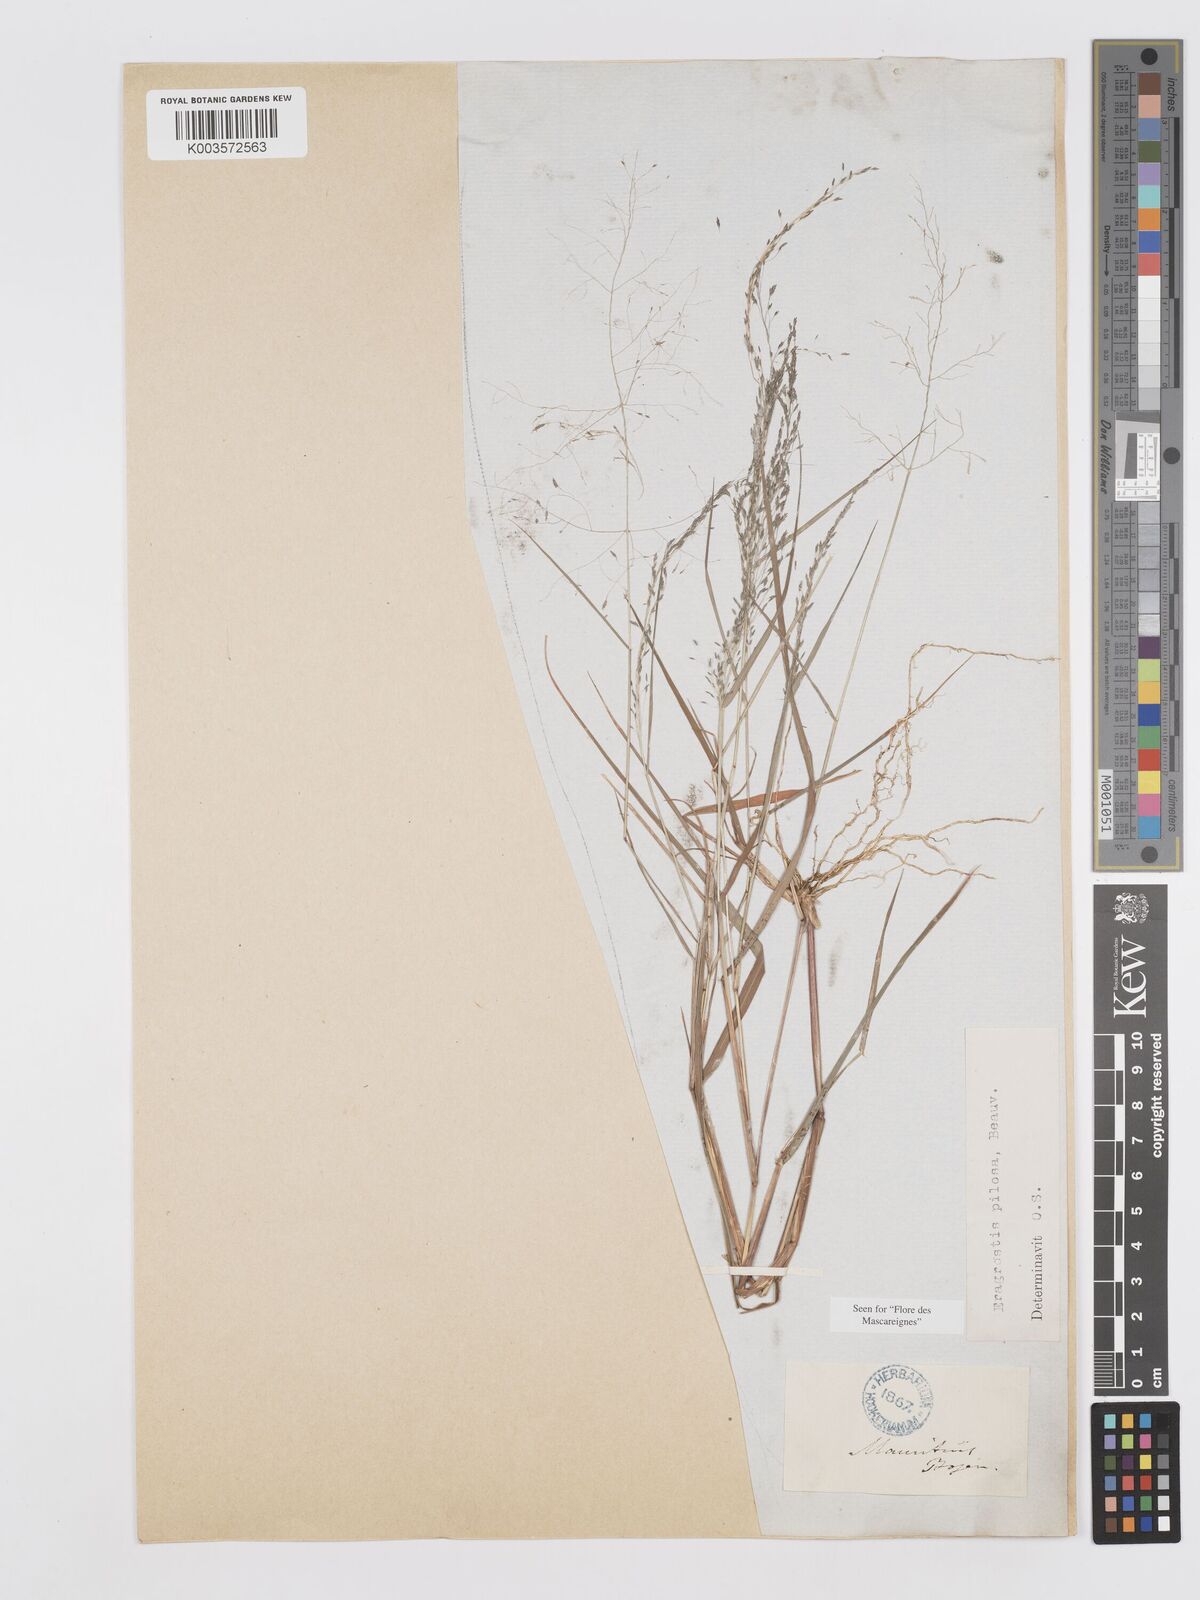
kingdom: Plantae
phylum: Tracheophyta
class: Liliopsida
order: Poales
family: Poaceae
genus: Eragrostis
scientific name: Eragrostis pilosa
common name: Indian lovegrass
